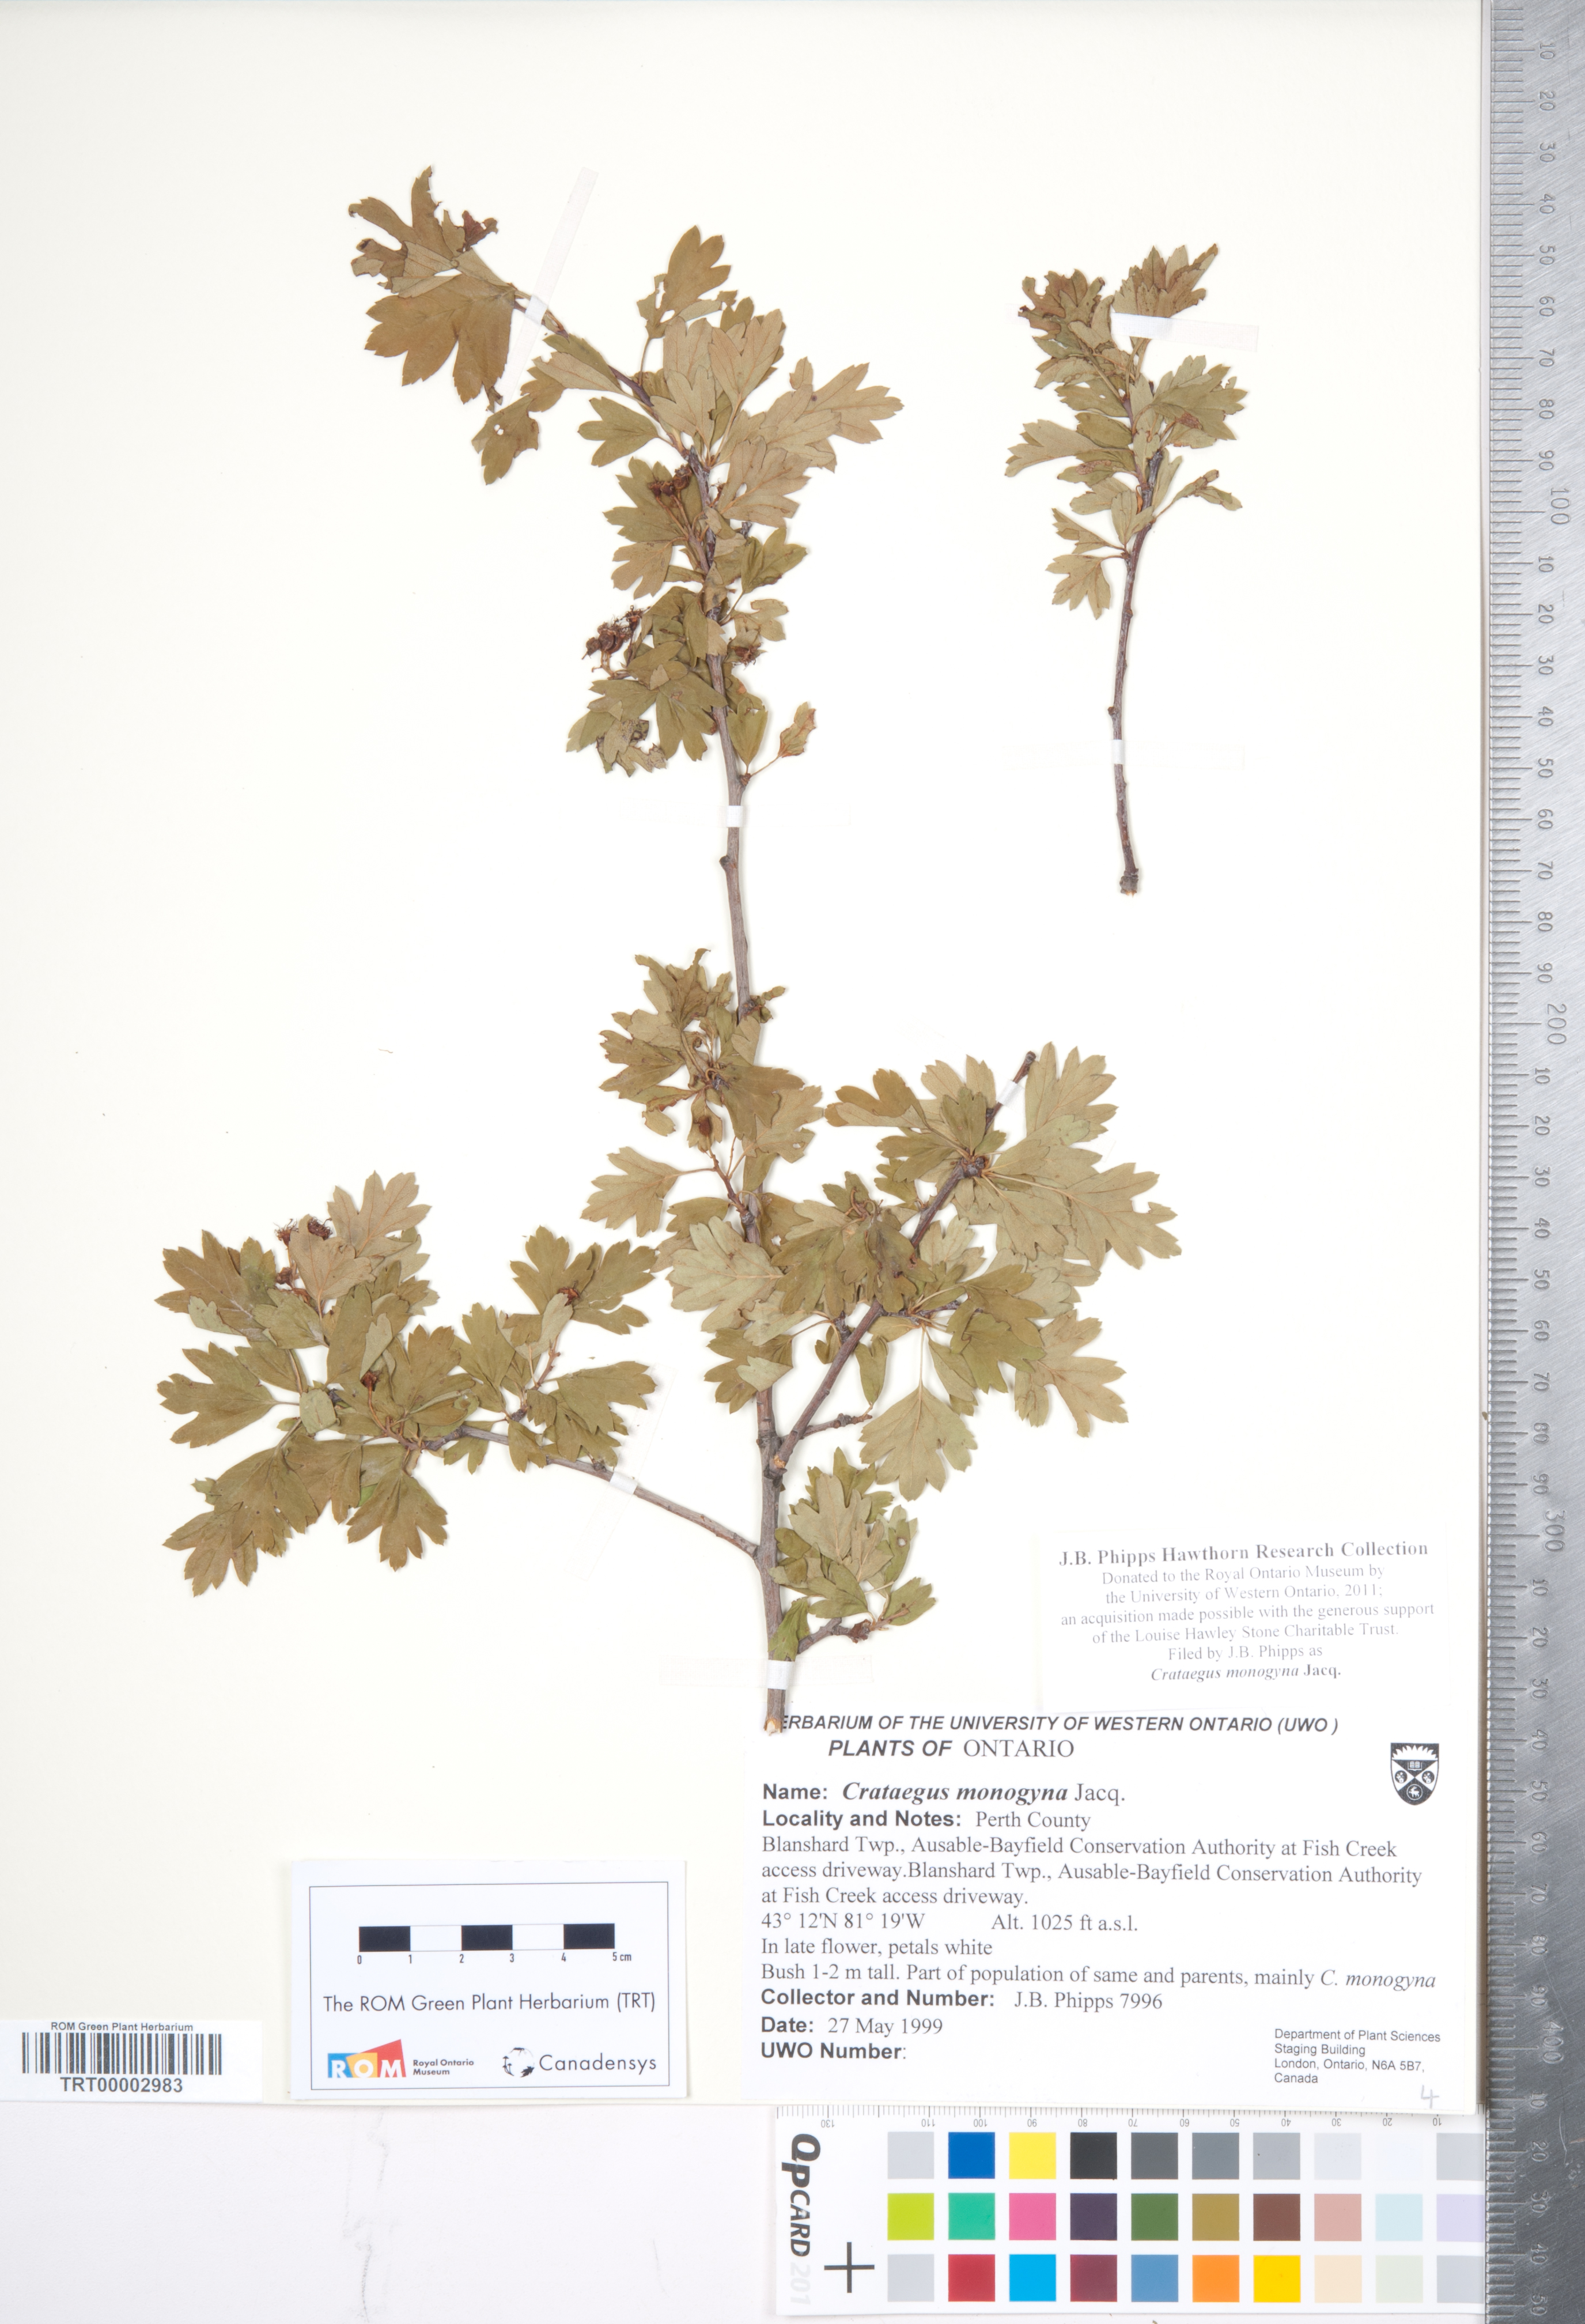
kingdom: Plantae
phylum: Tracheophyta
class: Magnoliopsida
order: Rosales
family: Rosaceae
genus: Crataegus
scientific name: Crataegus monogyna
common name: Hawthorn
